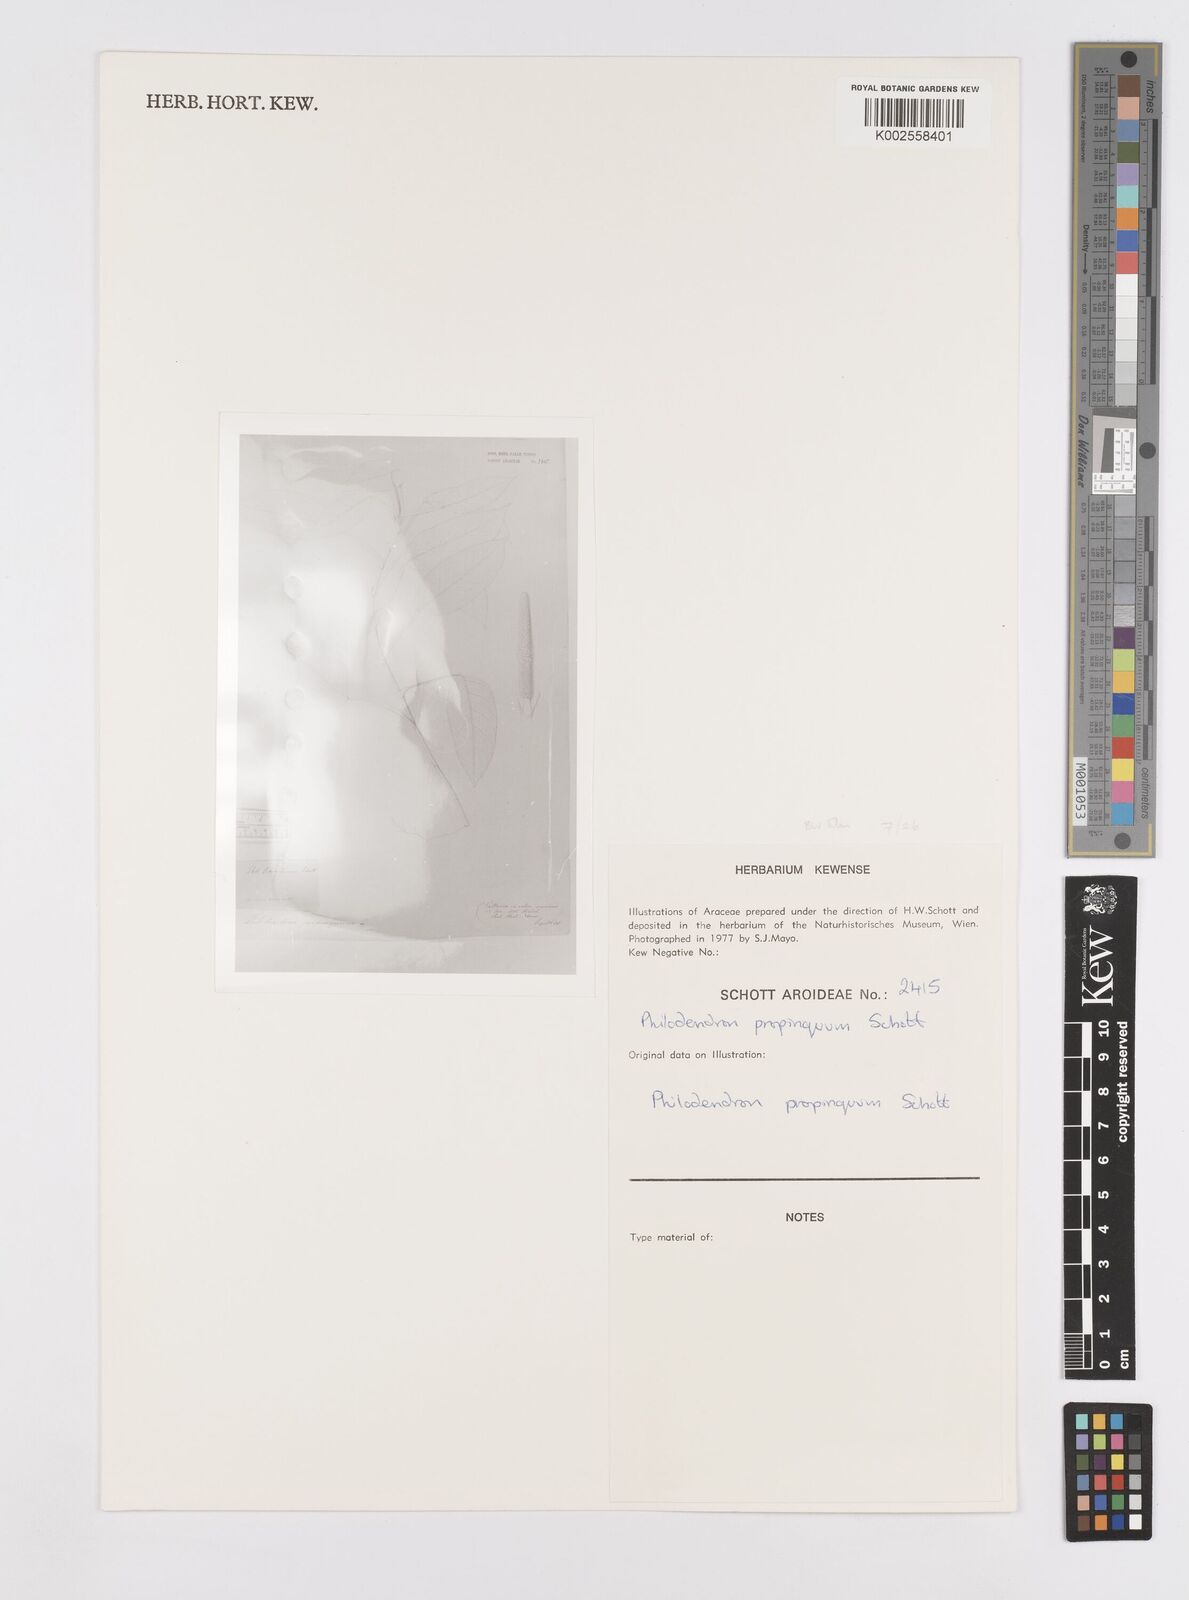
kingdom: Plantae
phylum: Tracheophyta
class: Liliopsida
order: Alismatales
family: Araceae
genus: Philodendron
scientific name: Philodendron propinquum
